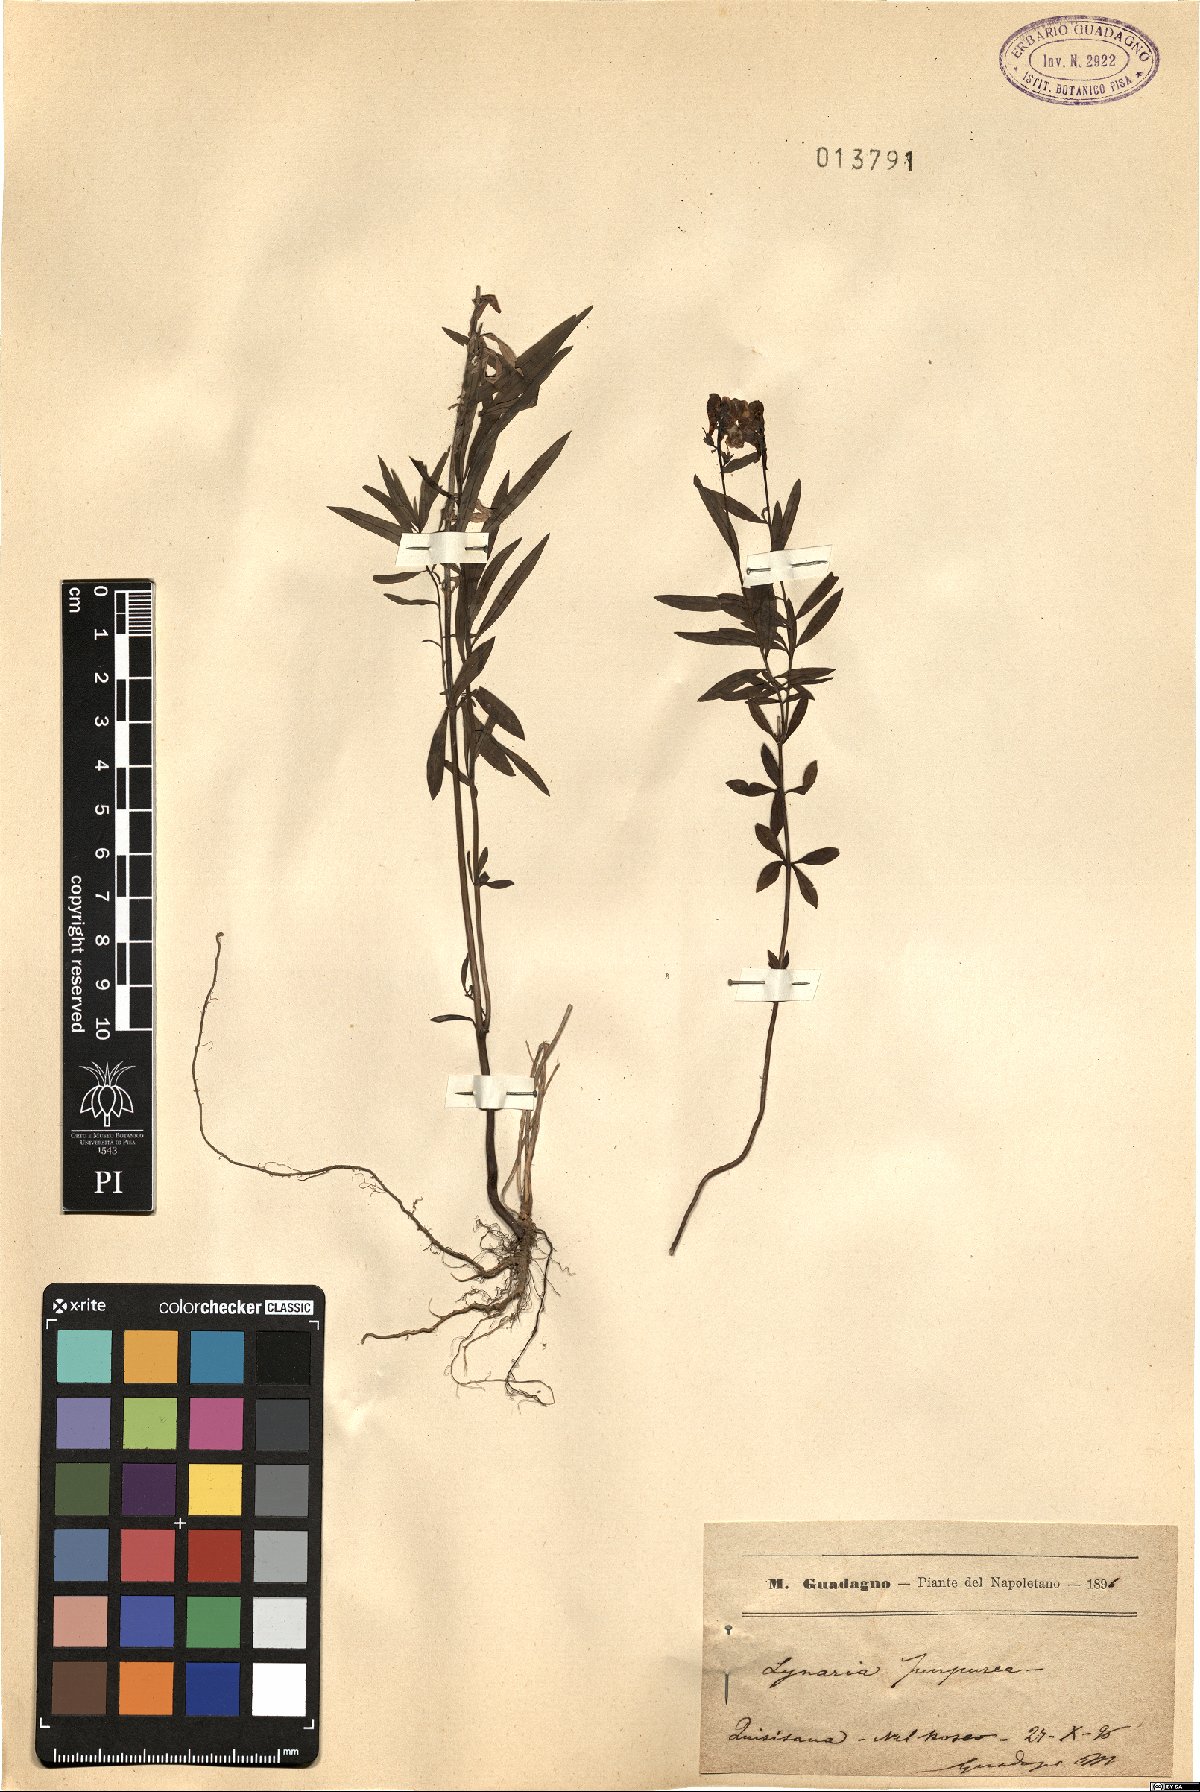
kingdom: Plantae
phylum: Tracheophyta
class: Magnoliopsida
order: Lamiales
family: Plantaginaceae
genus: Linaria
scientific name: Linaria purpurea
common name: Purple toadflax
